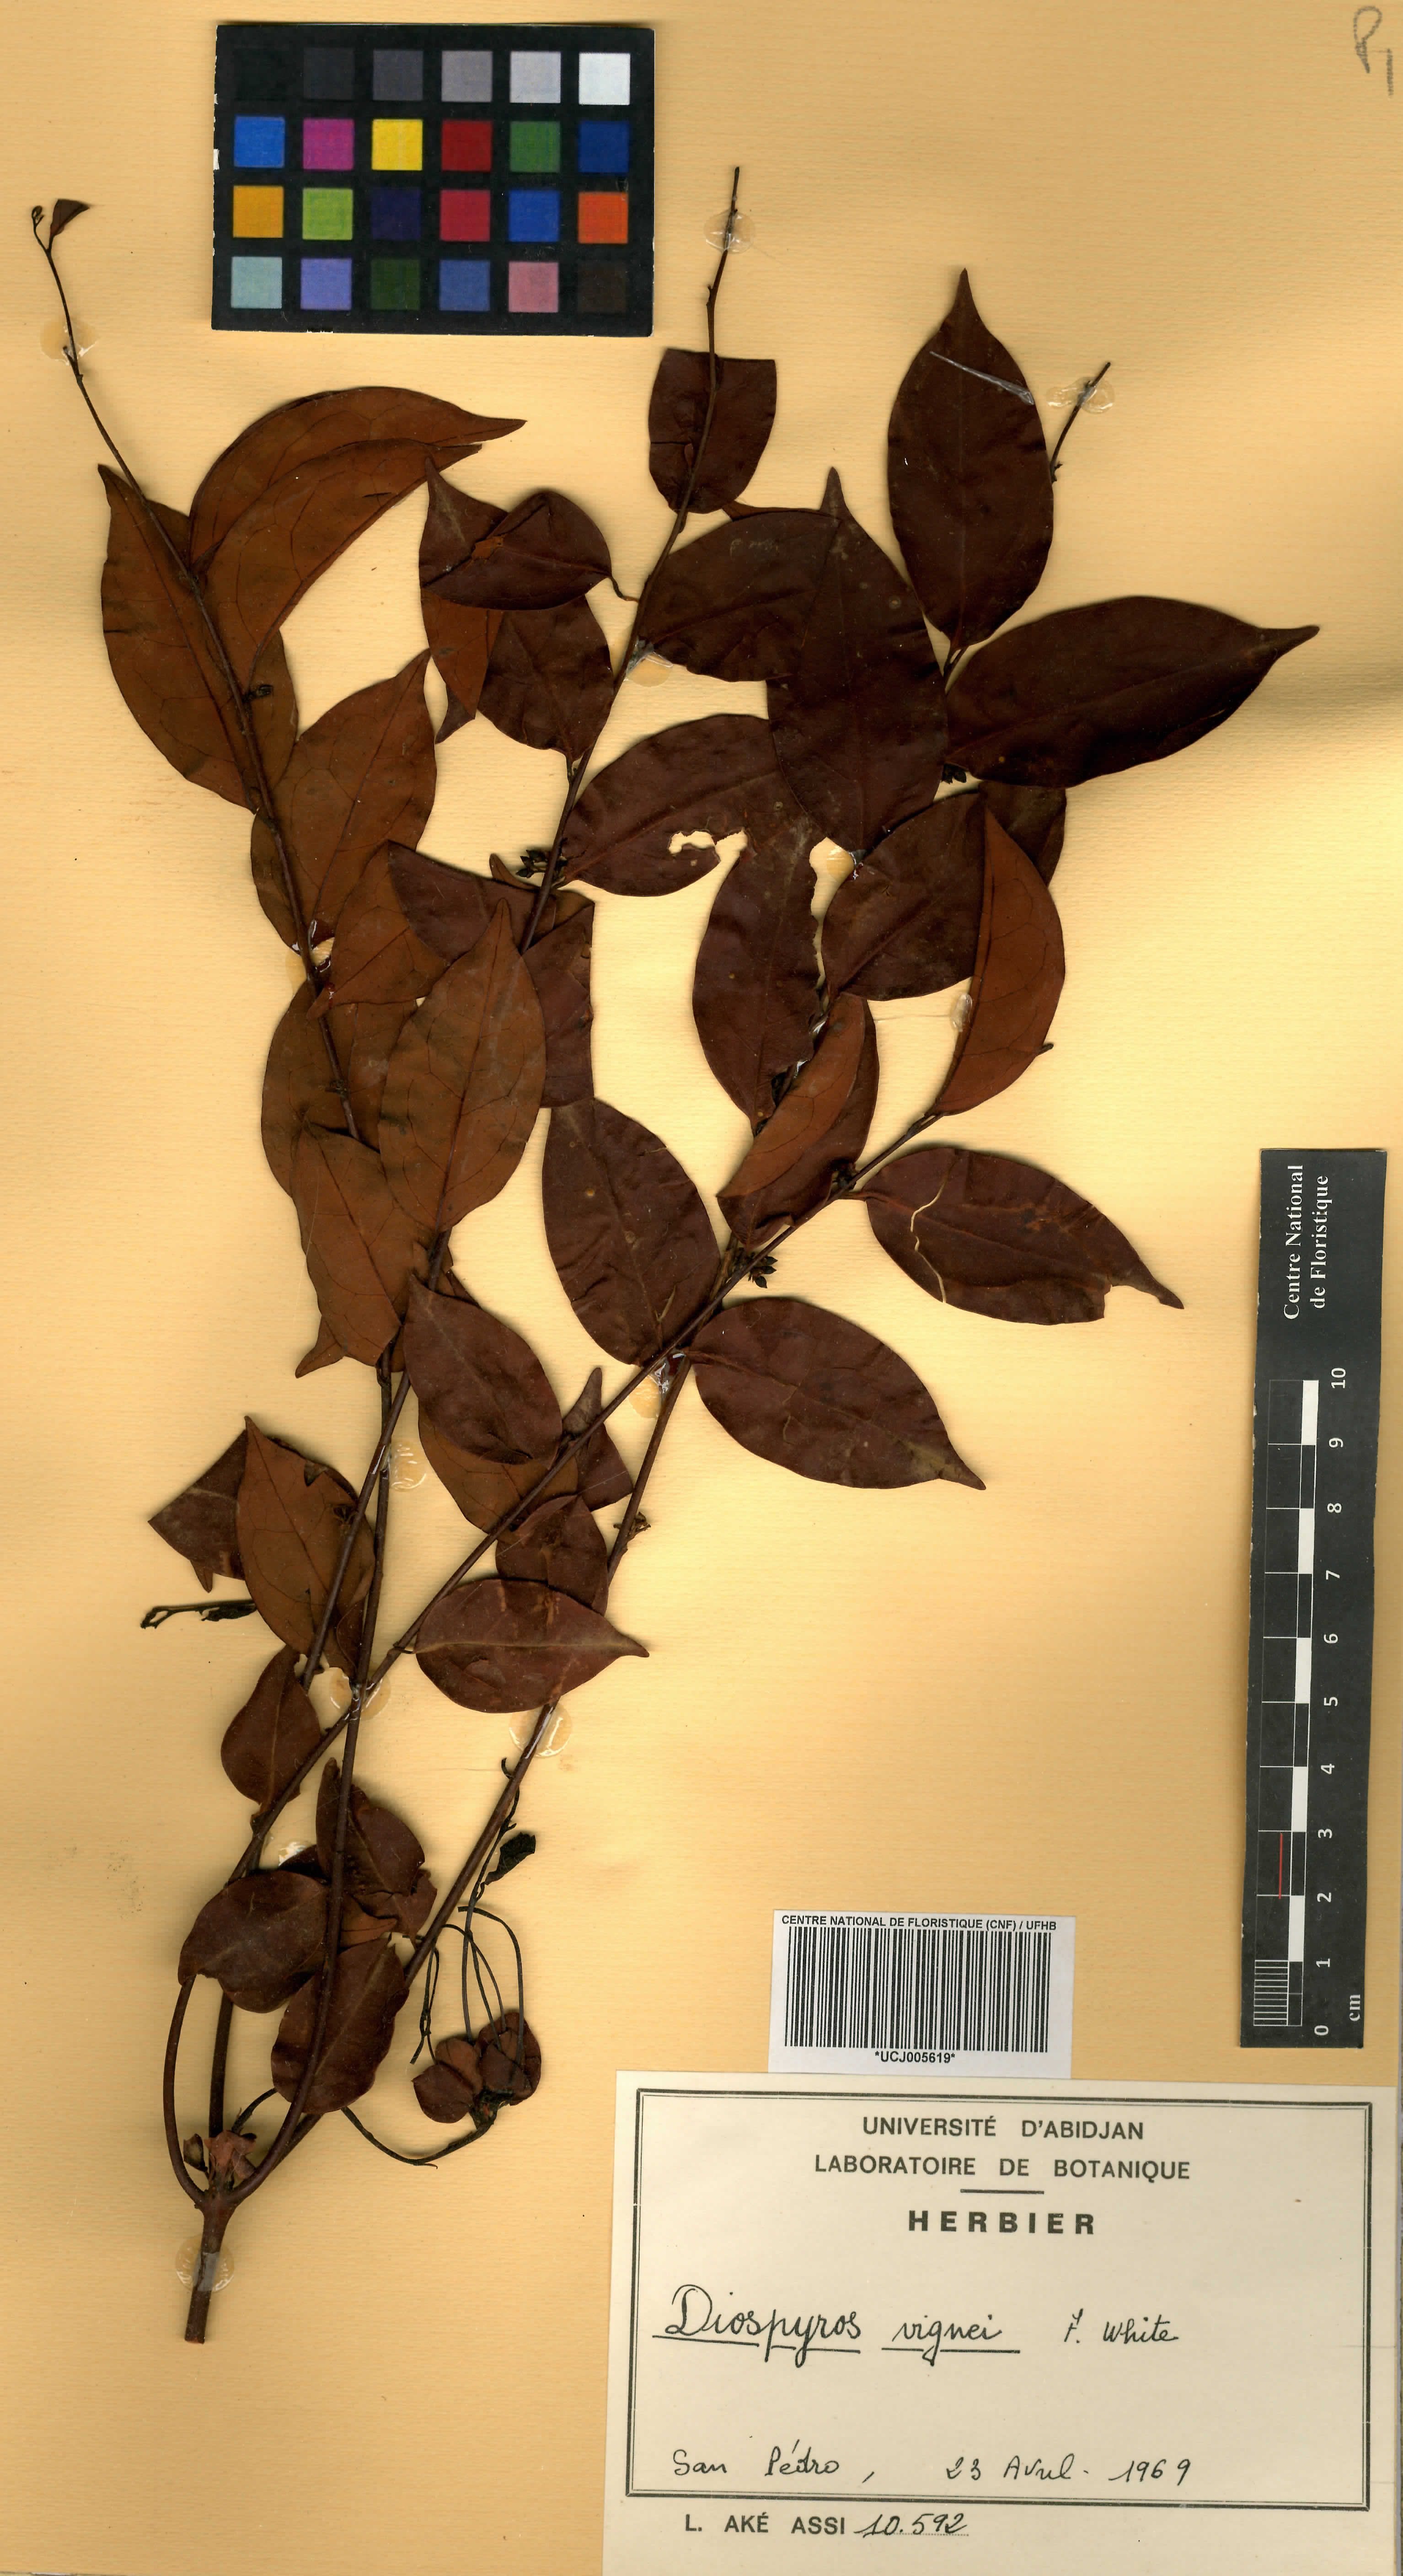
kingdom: Plantae
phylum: Tracheophyta
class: Magnoliopsida
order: Ericales
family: Ebenaceae
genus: Diospyros
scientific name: Diospyros vignei
